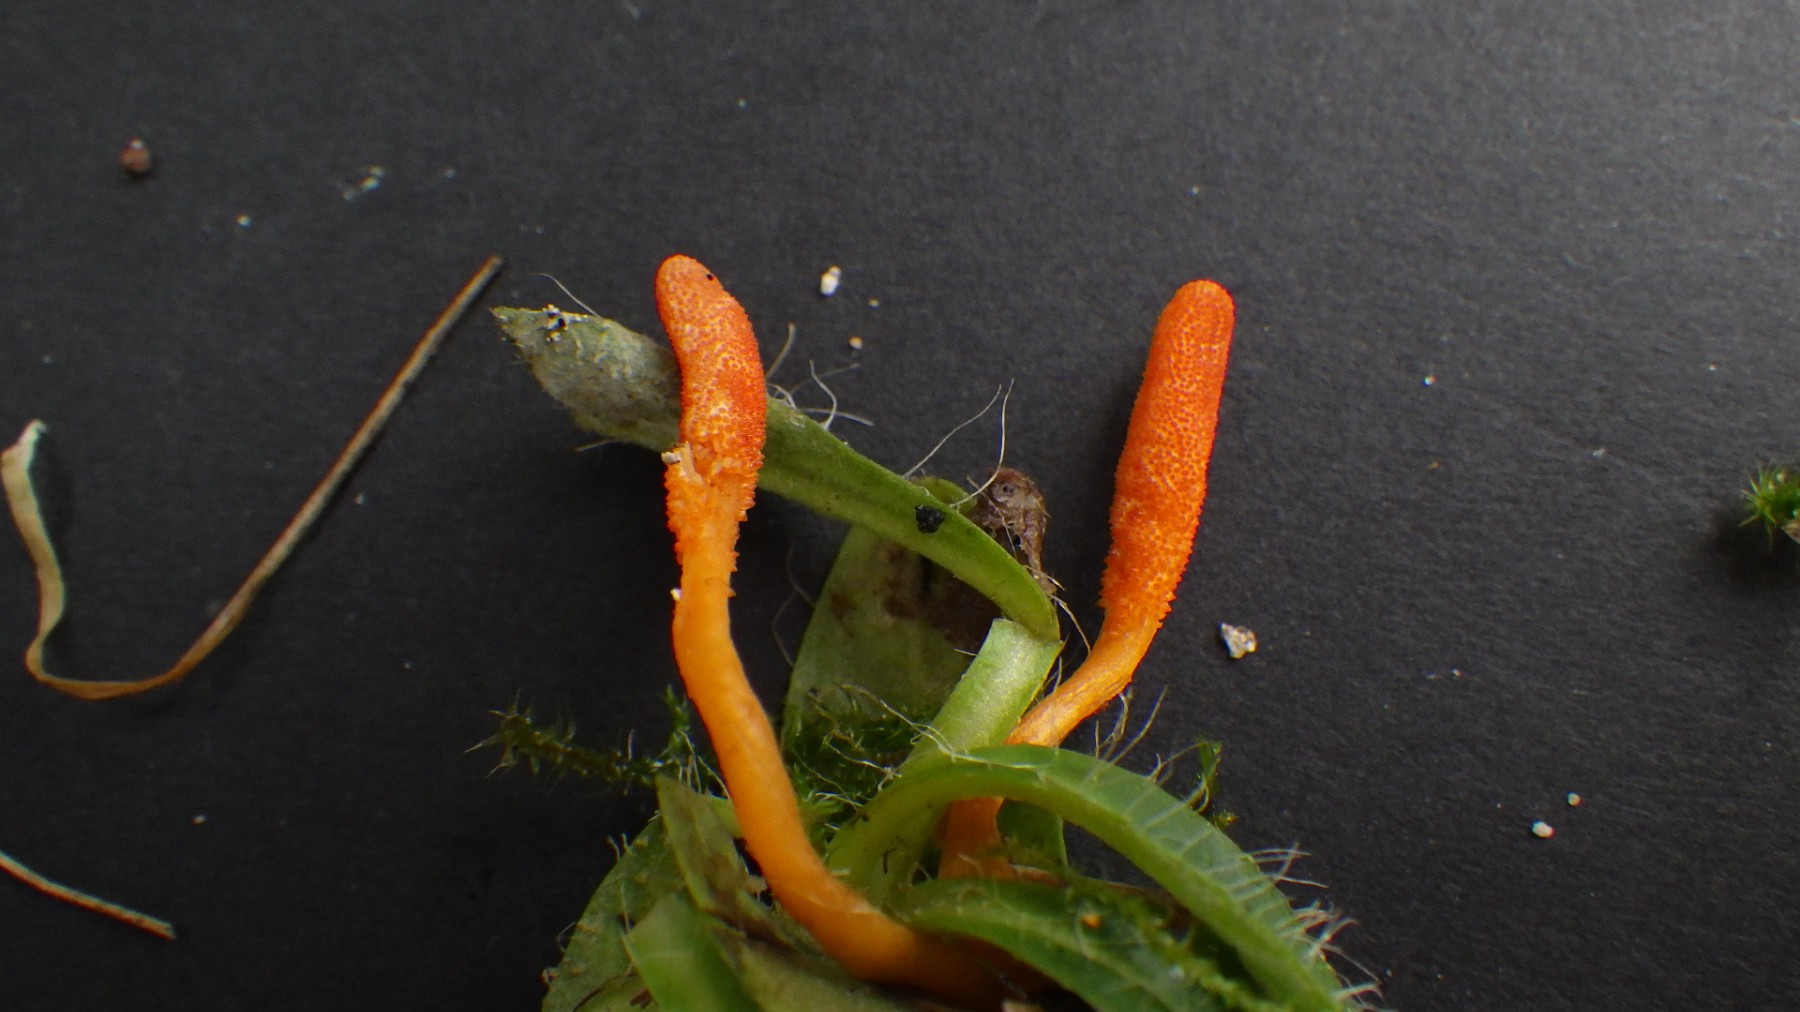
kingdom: Fungi
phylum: Ascomycota
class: Sordariomycetes
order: Hypocreales
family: Cordycipitaceae
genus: Cordyceps
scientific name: Cordyceps militaris
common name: puppe-snyltekølle
